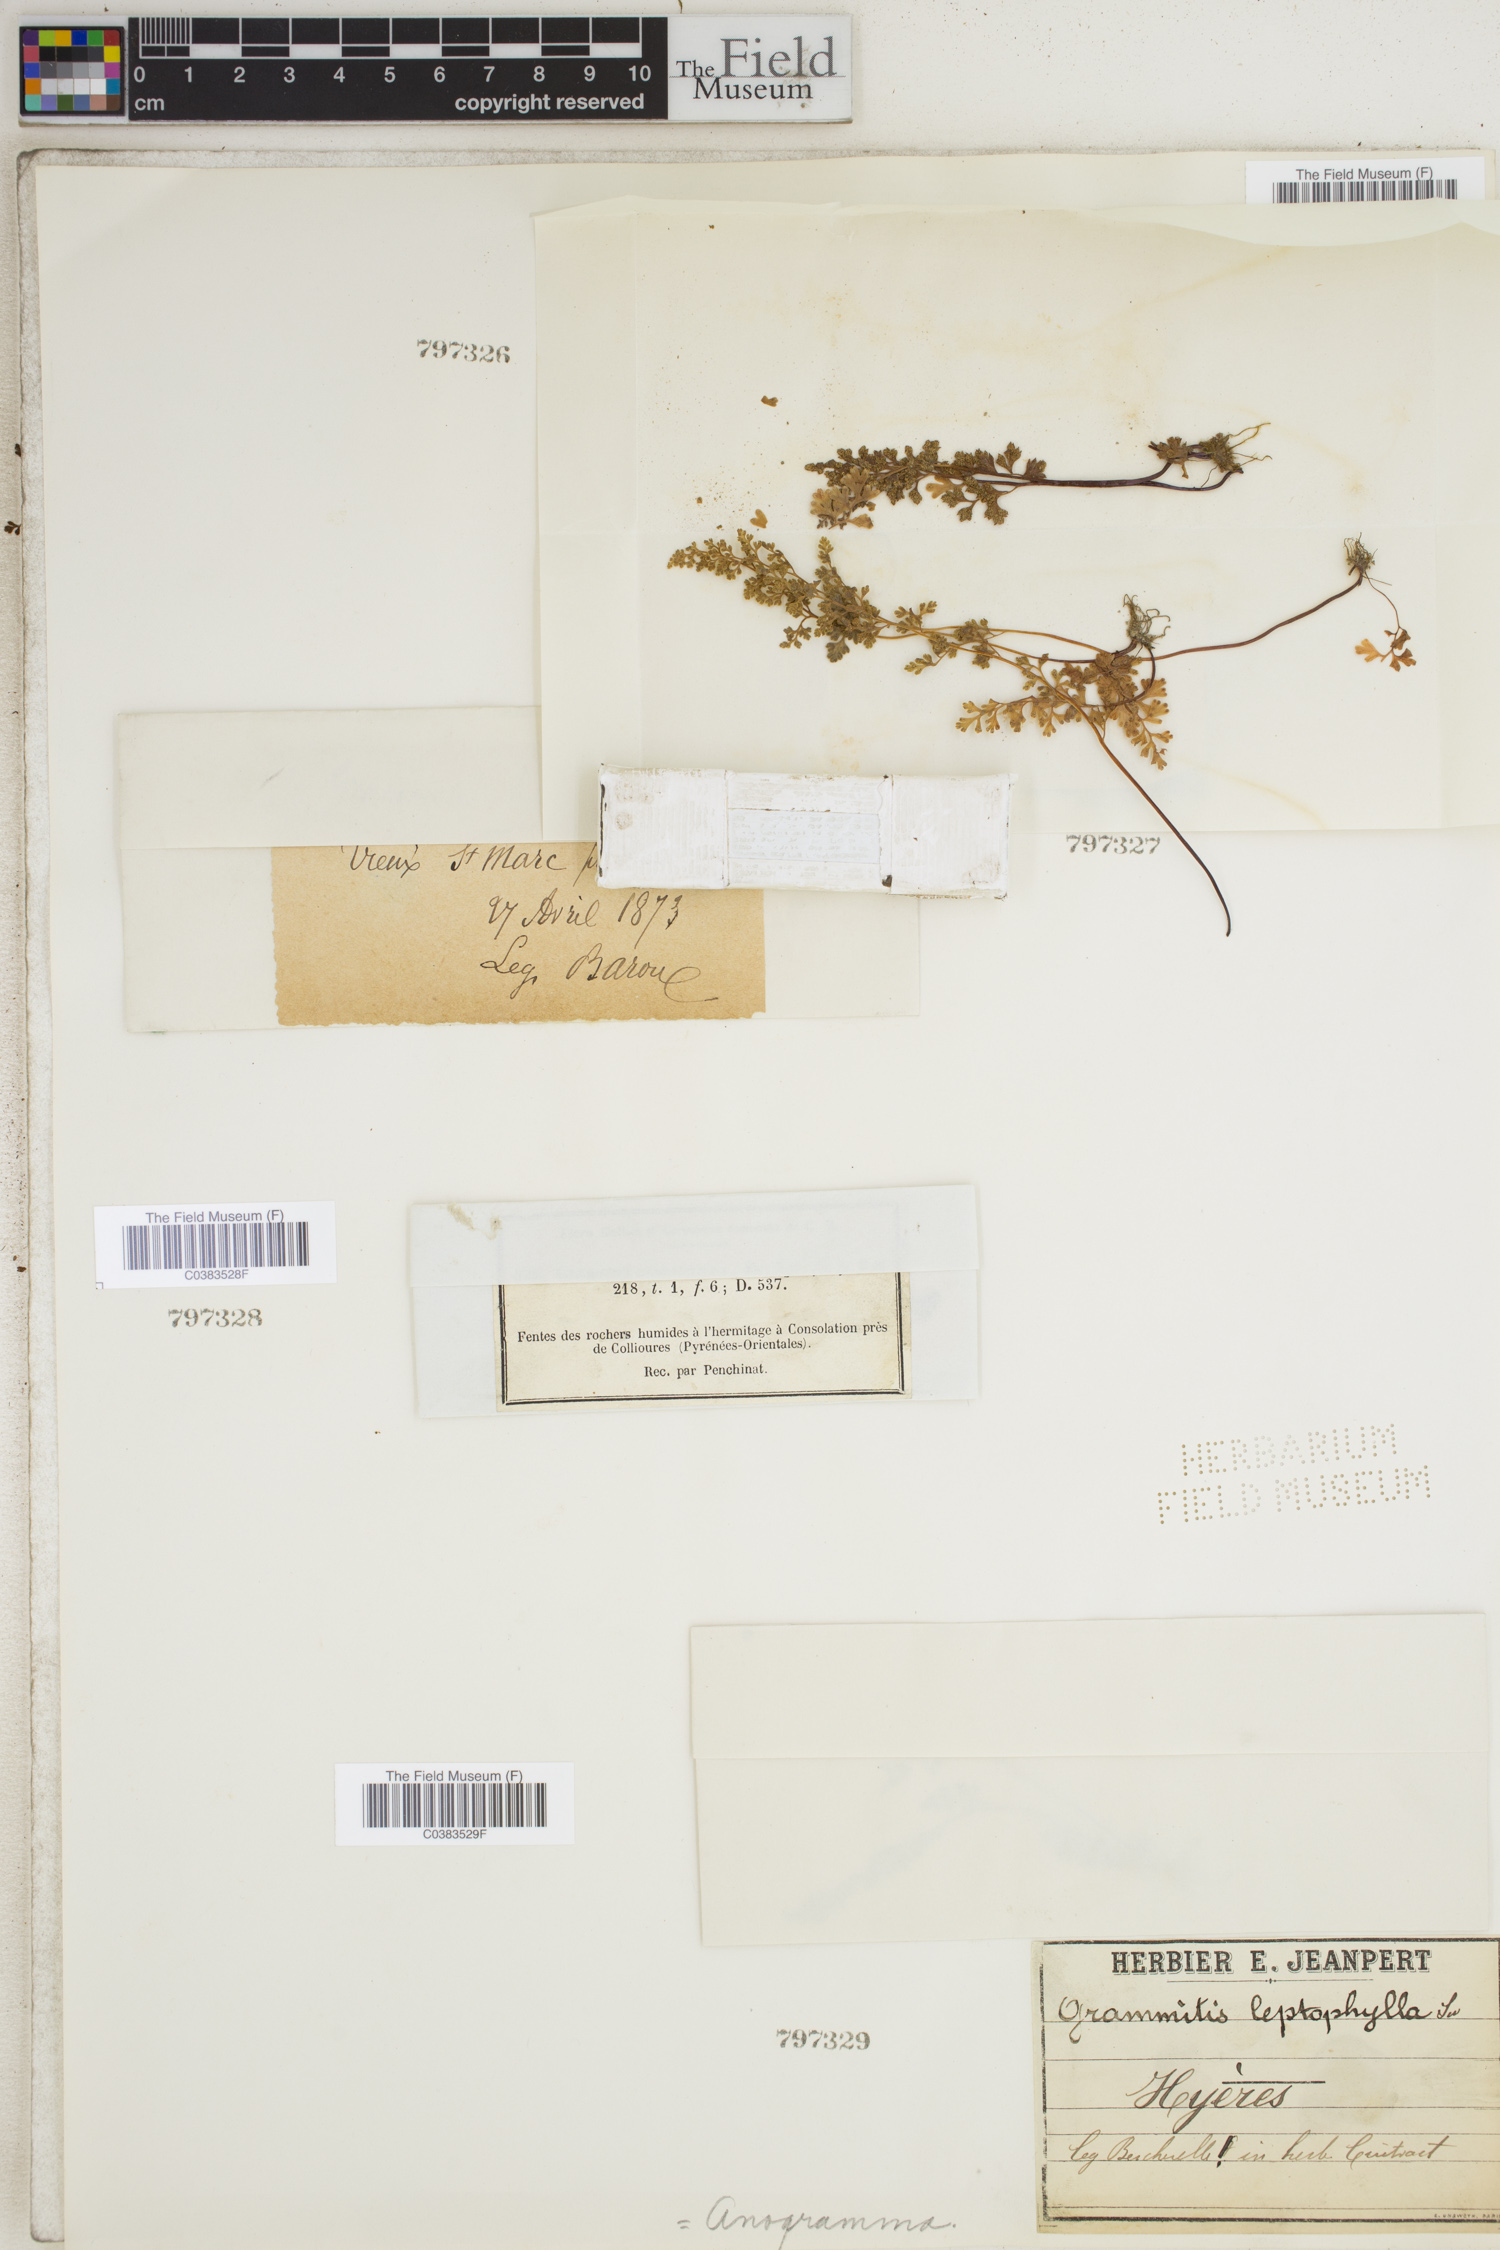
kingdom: Plantae
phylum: Tracheophyta
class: Polypodiopsida
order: Polypodiales
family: Pteridaceae
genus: Anogramma
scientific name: Anogramma leptophylla
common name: Jersey fern
